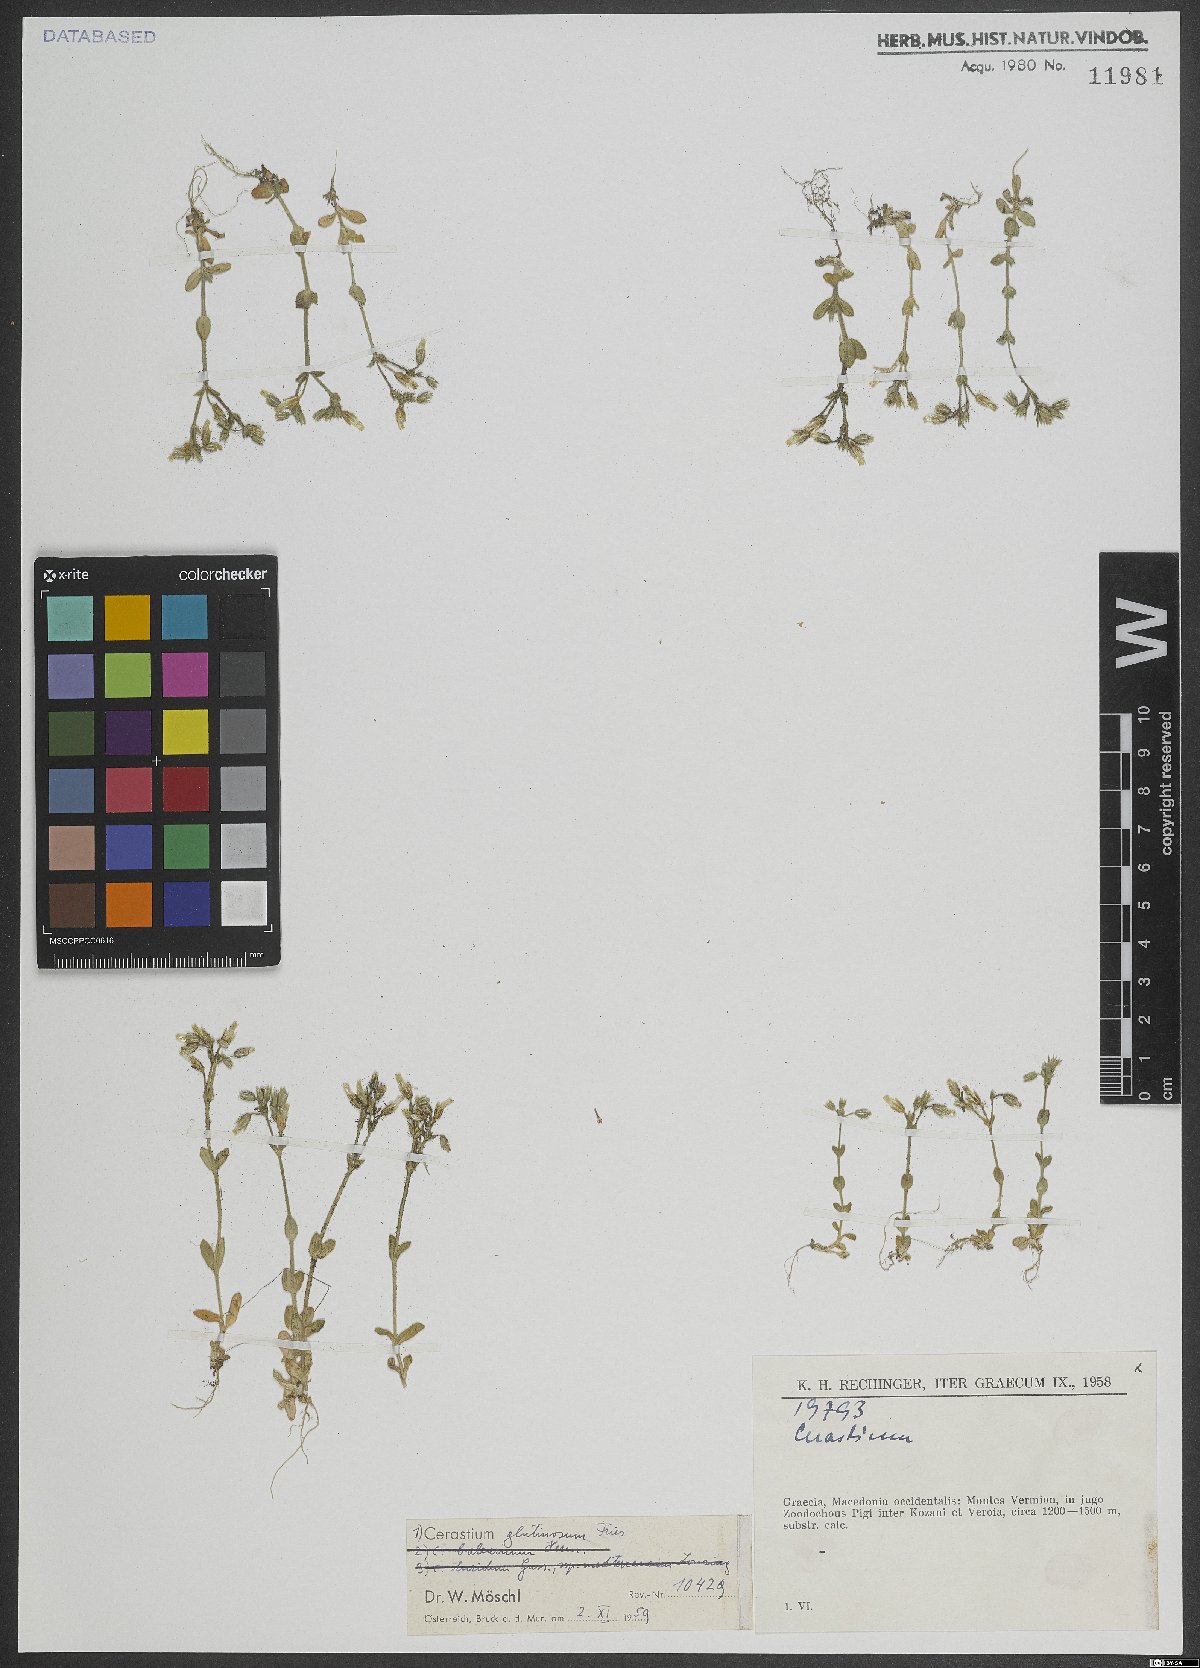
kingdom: Plantae
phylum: Tracheophyta
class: Magnoliopsida
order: Caryophyllales
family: Caryophyllaceae
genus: Cerastium
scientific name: Cerastium glutinosum
